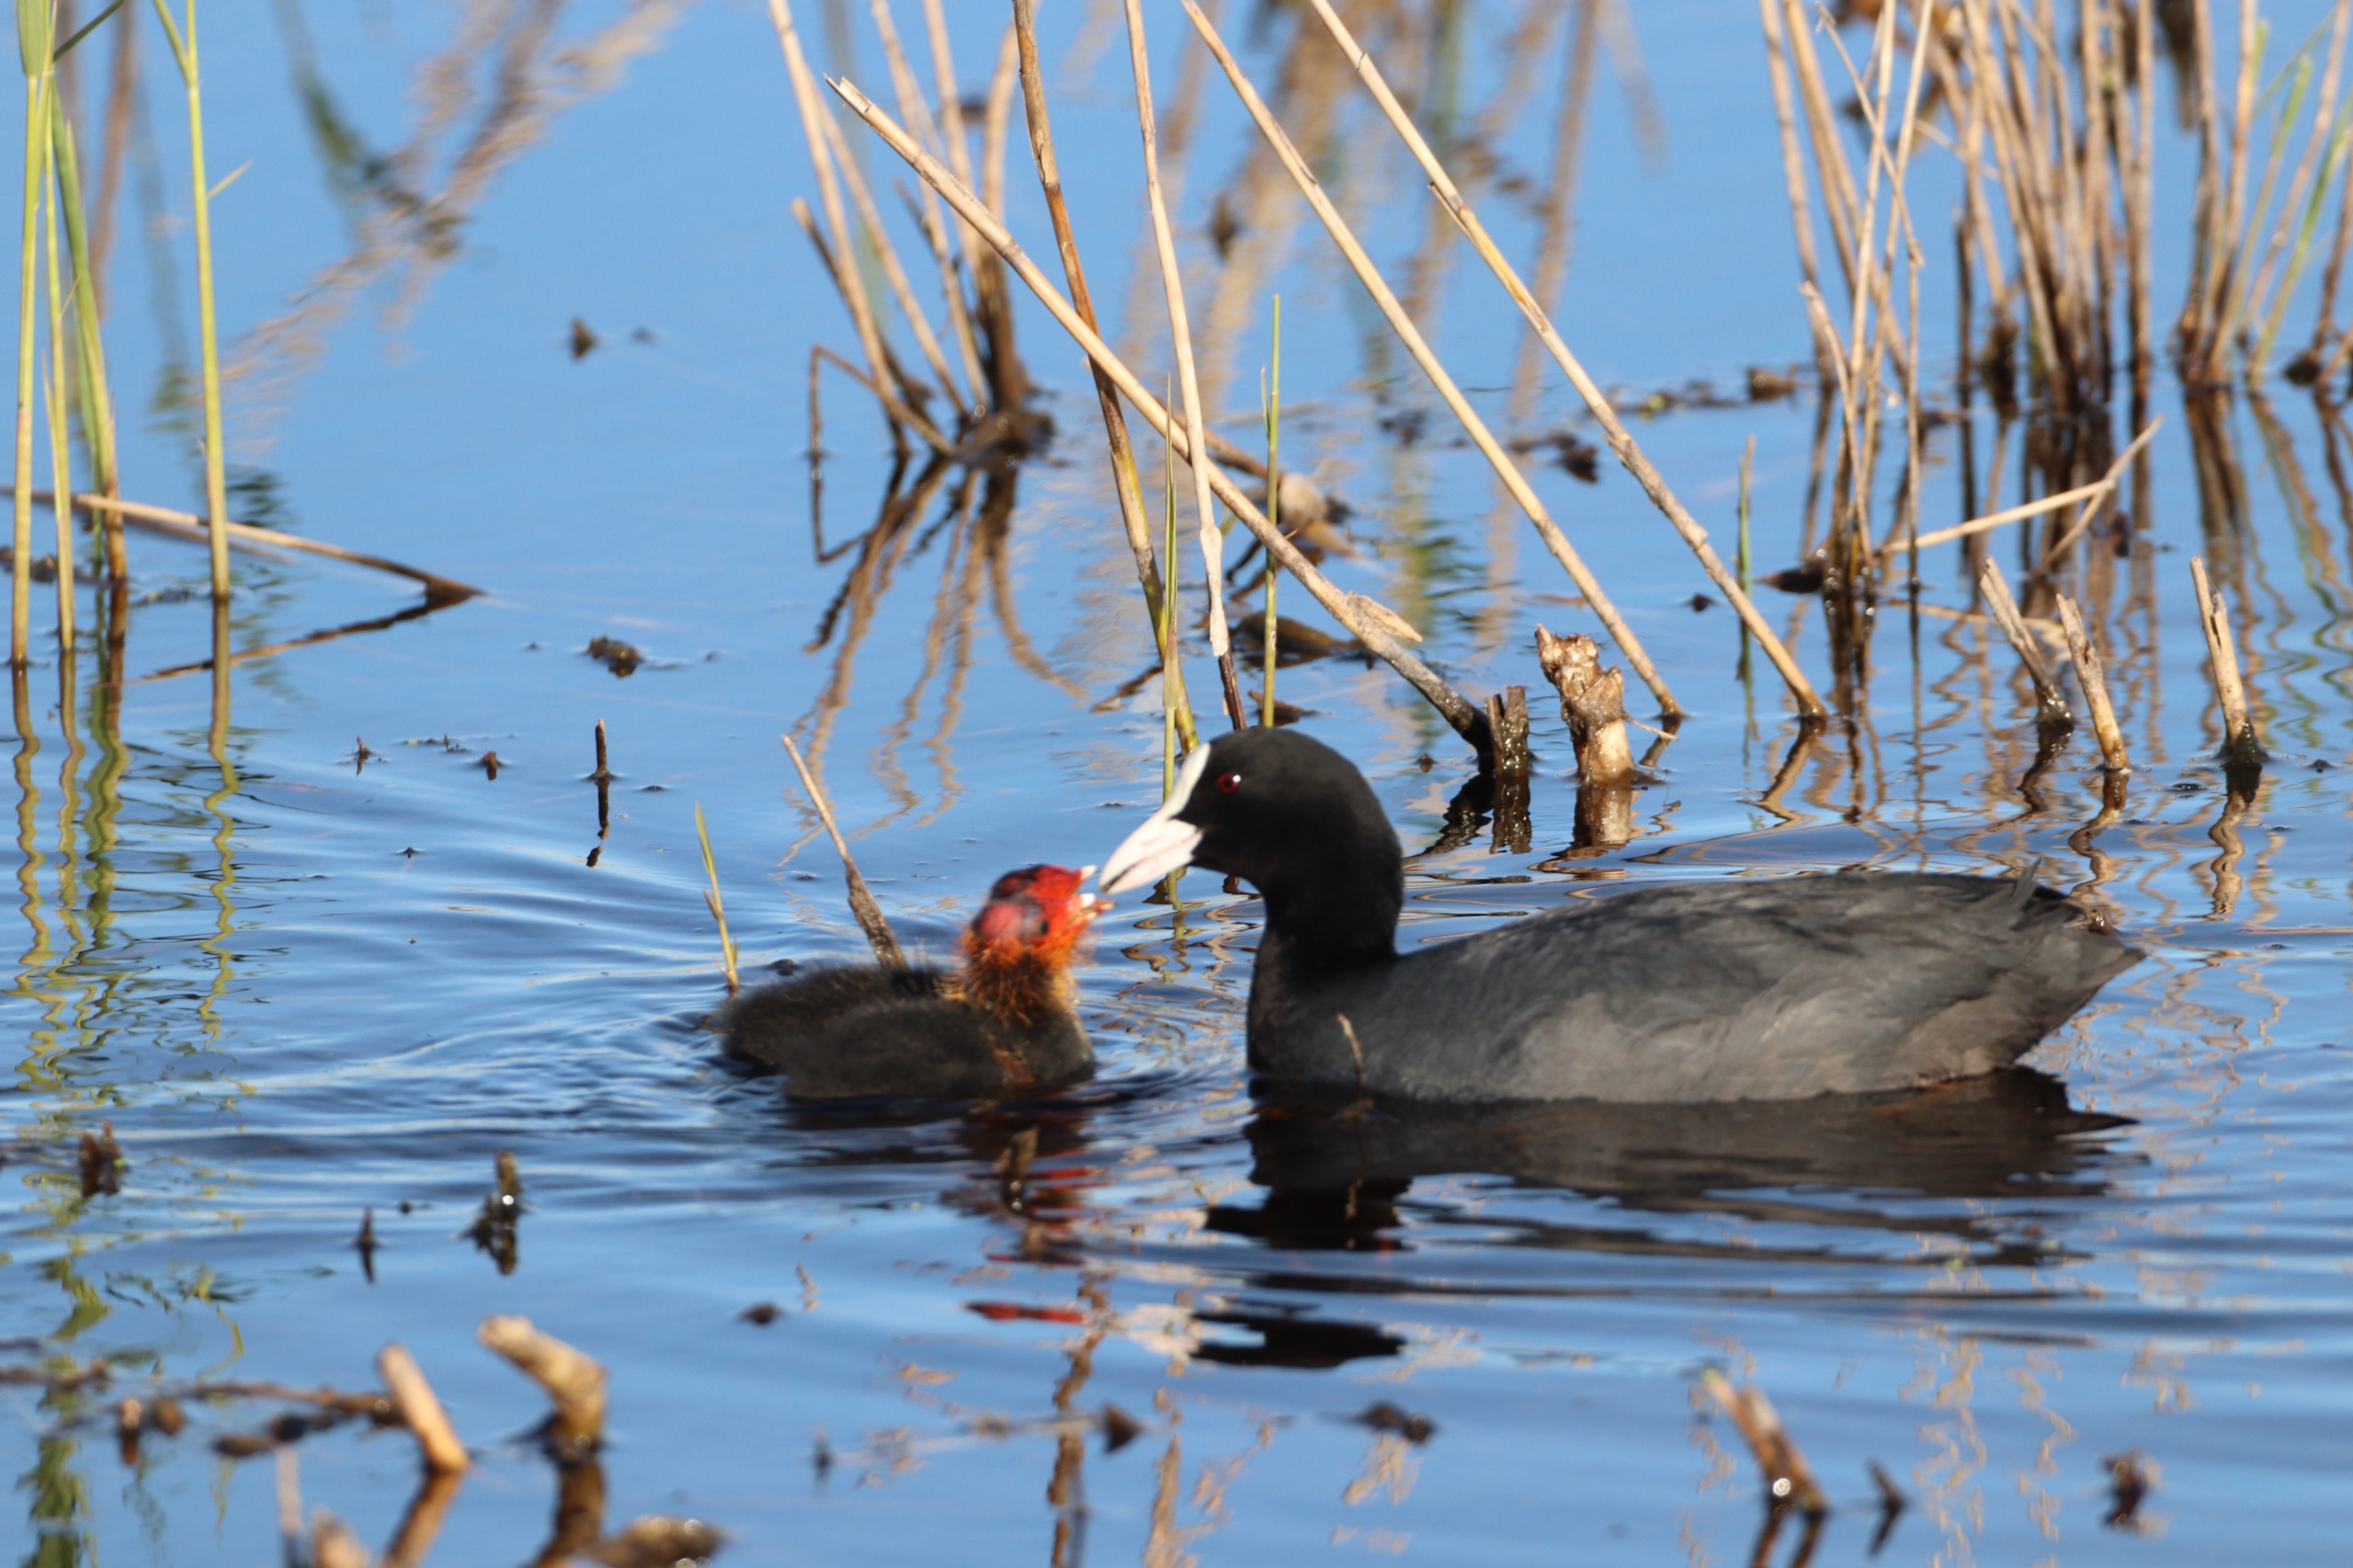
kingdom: Animalia
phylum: Chordata
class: Aves
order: Gruiformes
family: Rallidae
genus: Fulica
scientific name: Fulica atra
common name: Blishøne
